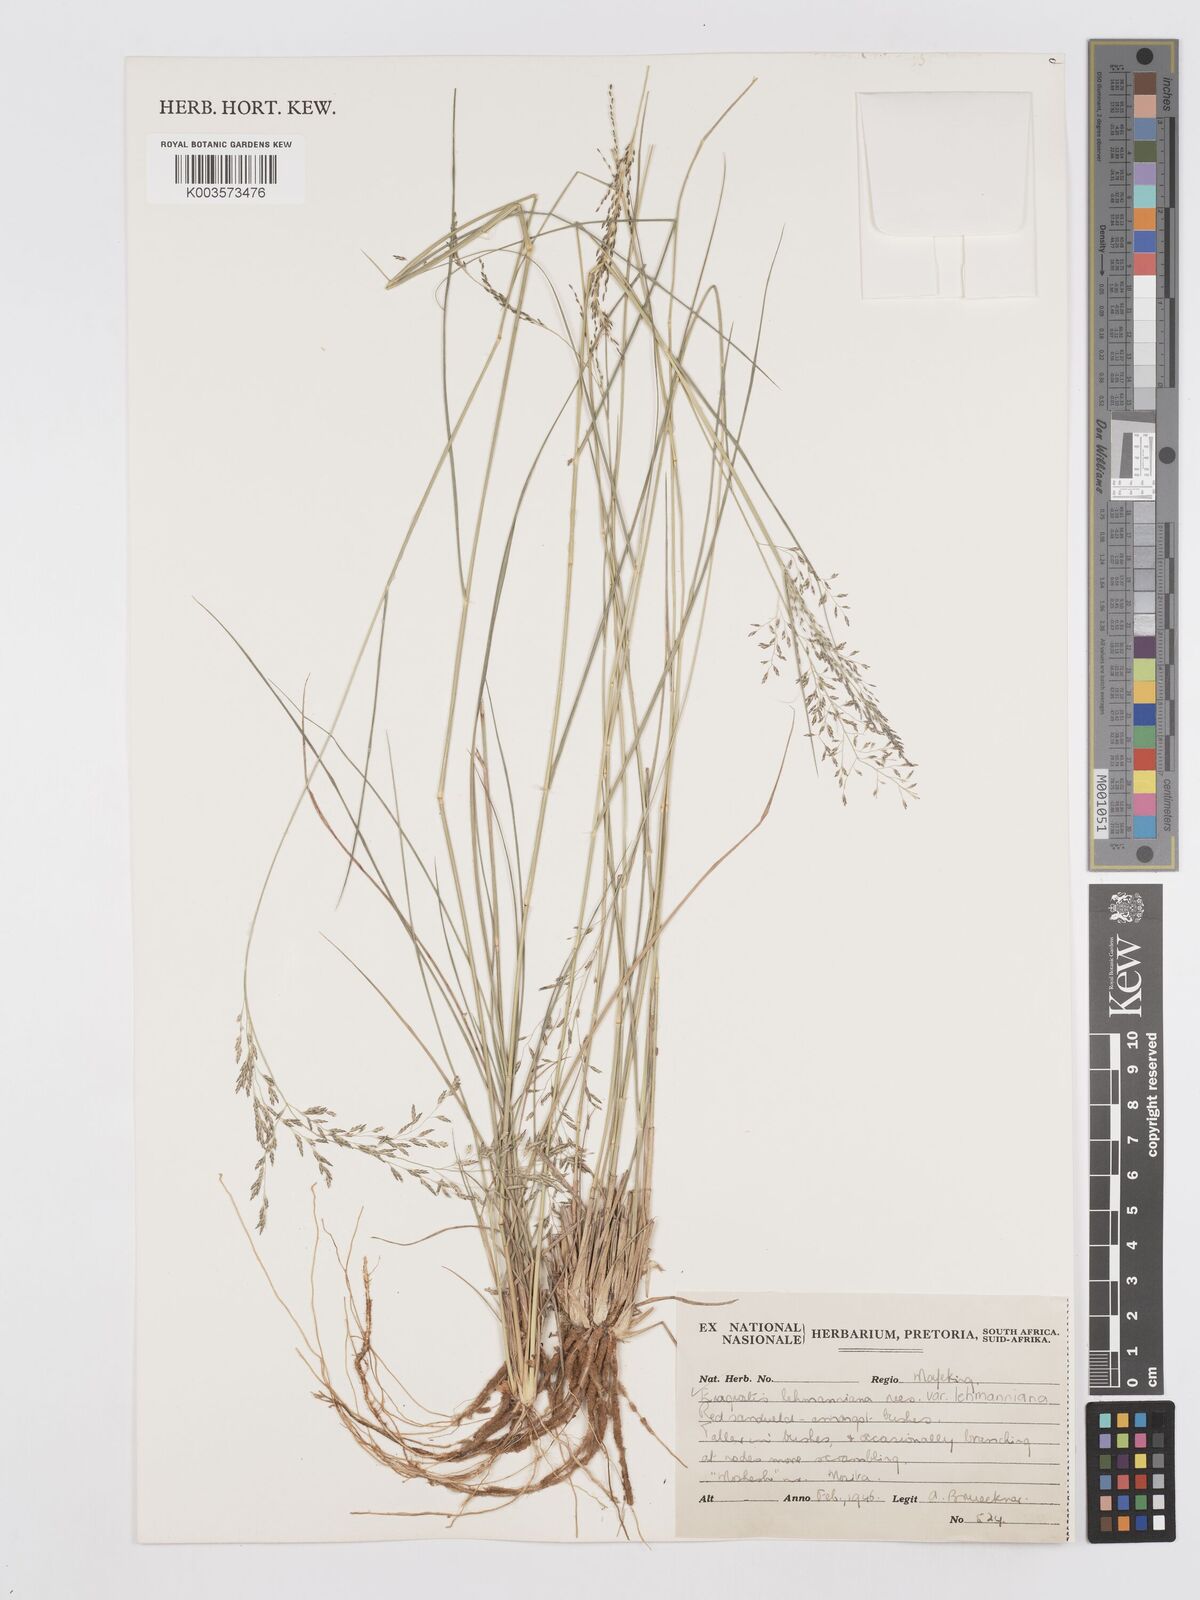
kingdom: Plantae
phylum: Tracheophyta
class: Liliopsida
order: Poales
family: Poaceae
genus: Eragrostis
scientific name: Eragrostis lehmanniana
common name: Lehmann lovegrass
